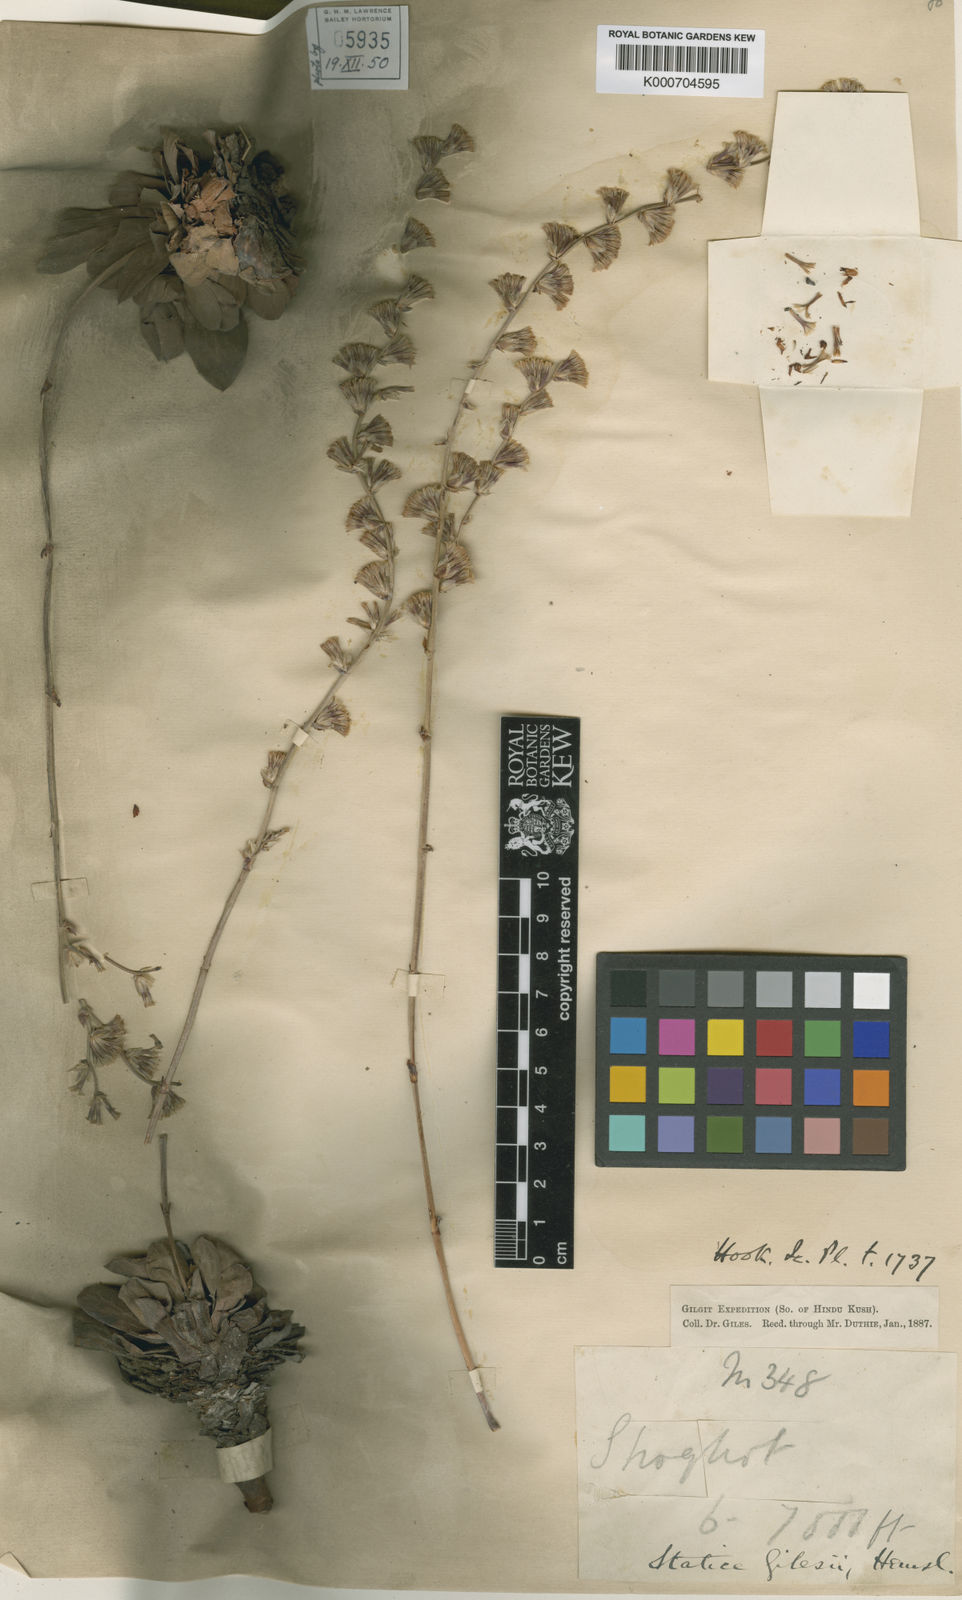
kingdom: Plantae
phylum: Tracheophyta
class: Magnoliopsida
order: Caryophyllales
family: Plumbaginaceae
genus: Dictyolimon
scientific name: Dictyolimon gilesii
